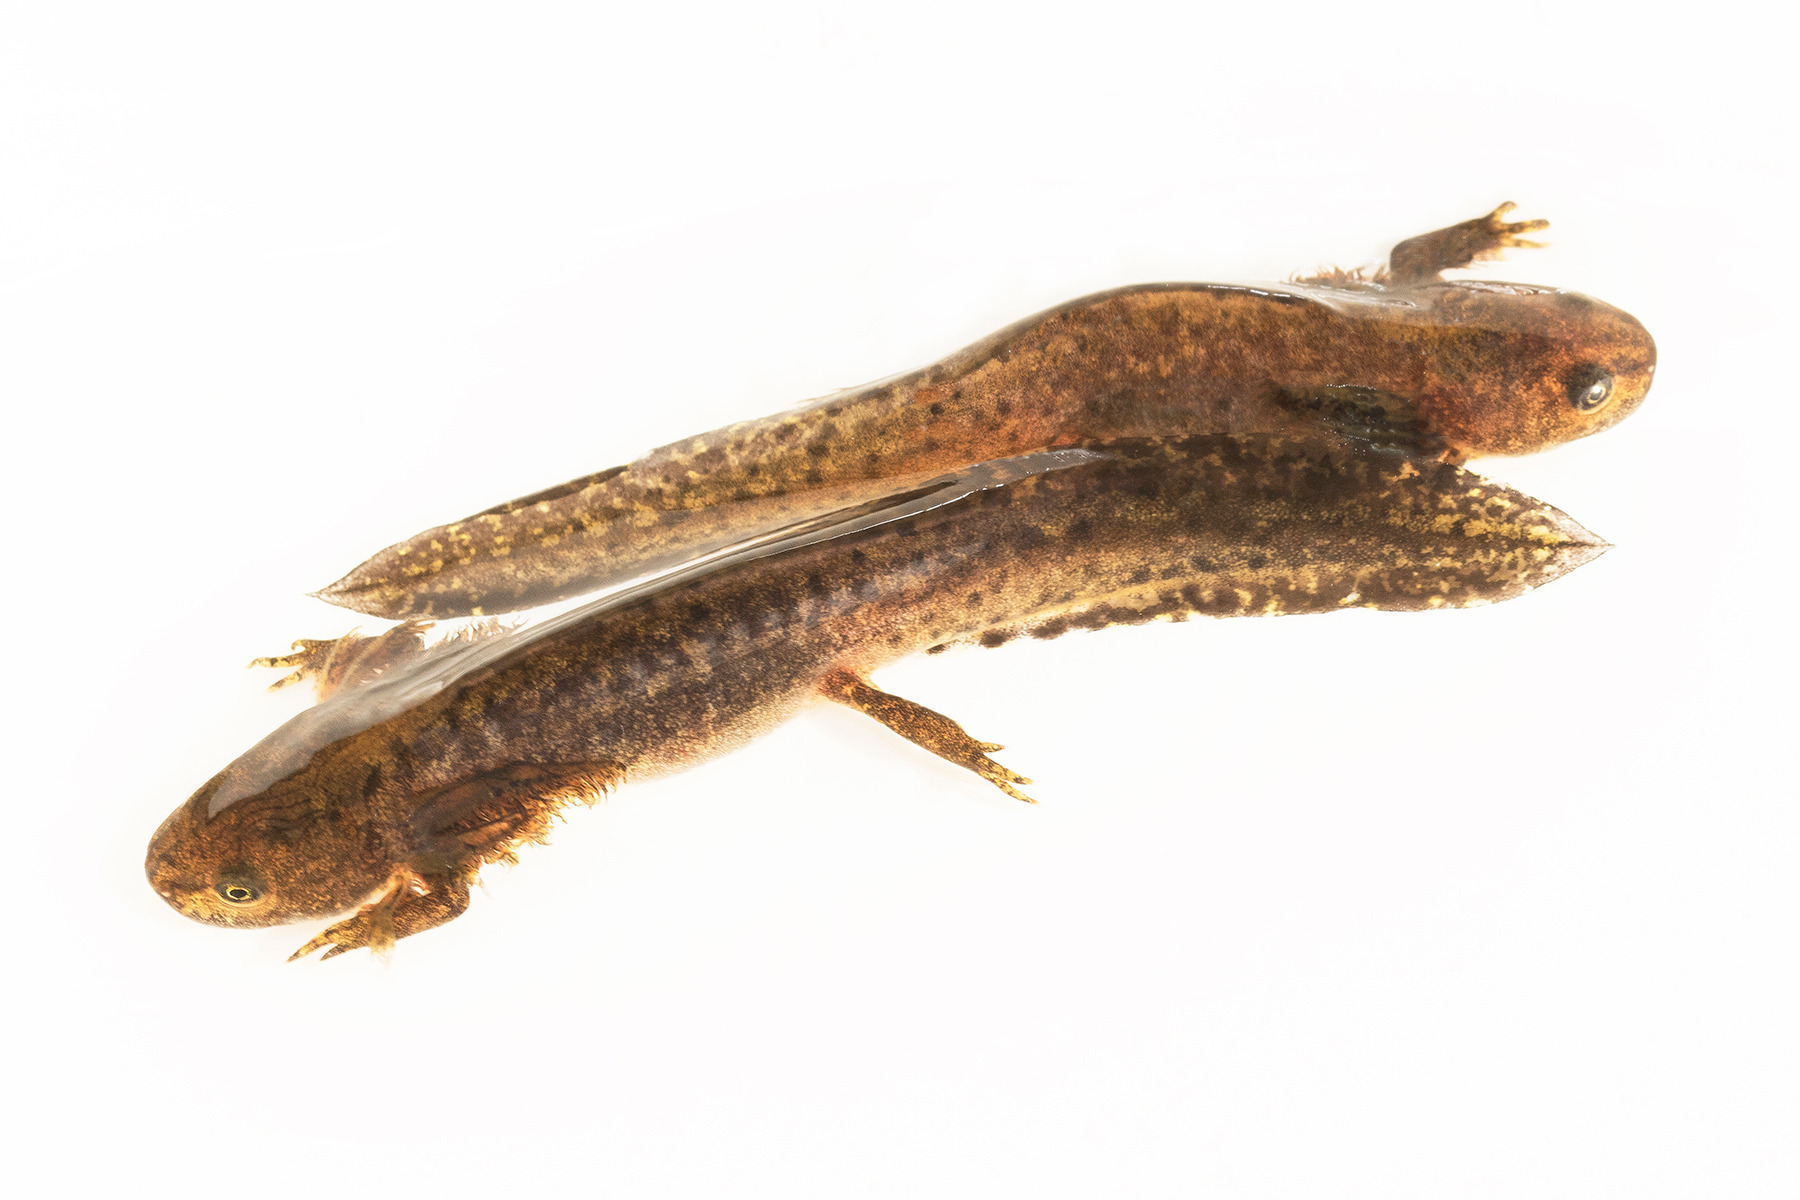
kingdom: Animalia
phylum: Chordata
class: Amphibia
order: Caudata
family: Salamandridae
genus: Ichthyosaura
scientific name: Ichthyosaura alpestris
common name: Bjergsalamander
